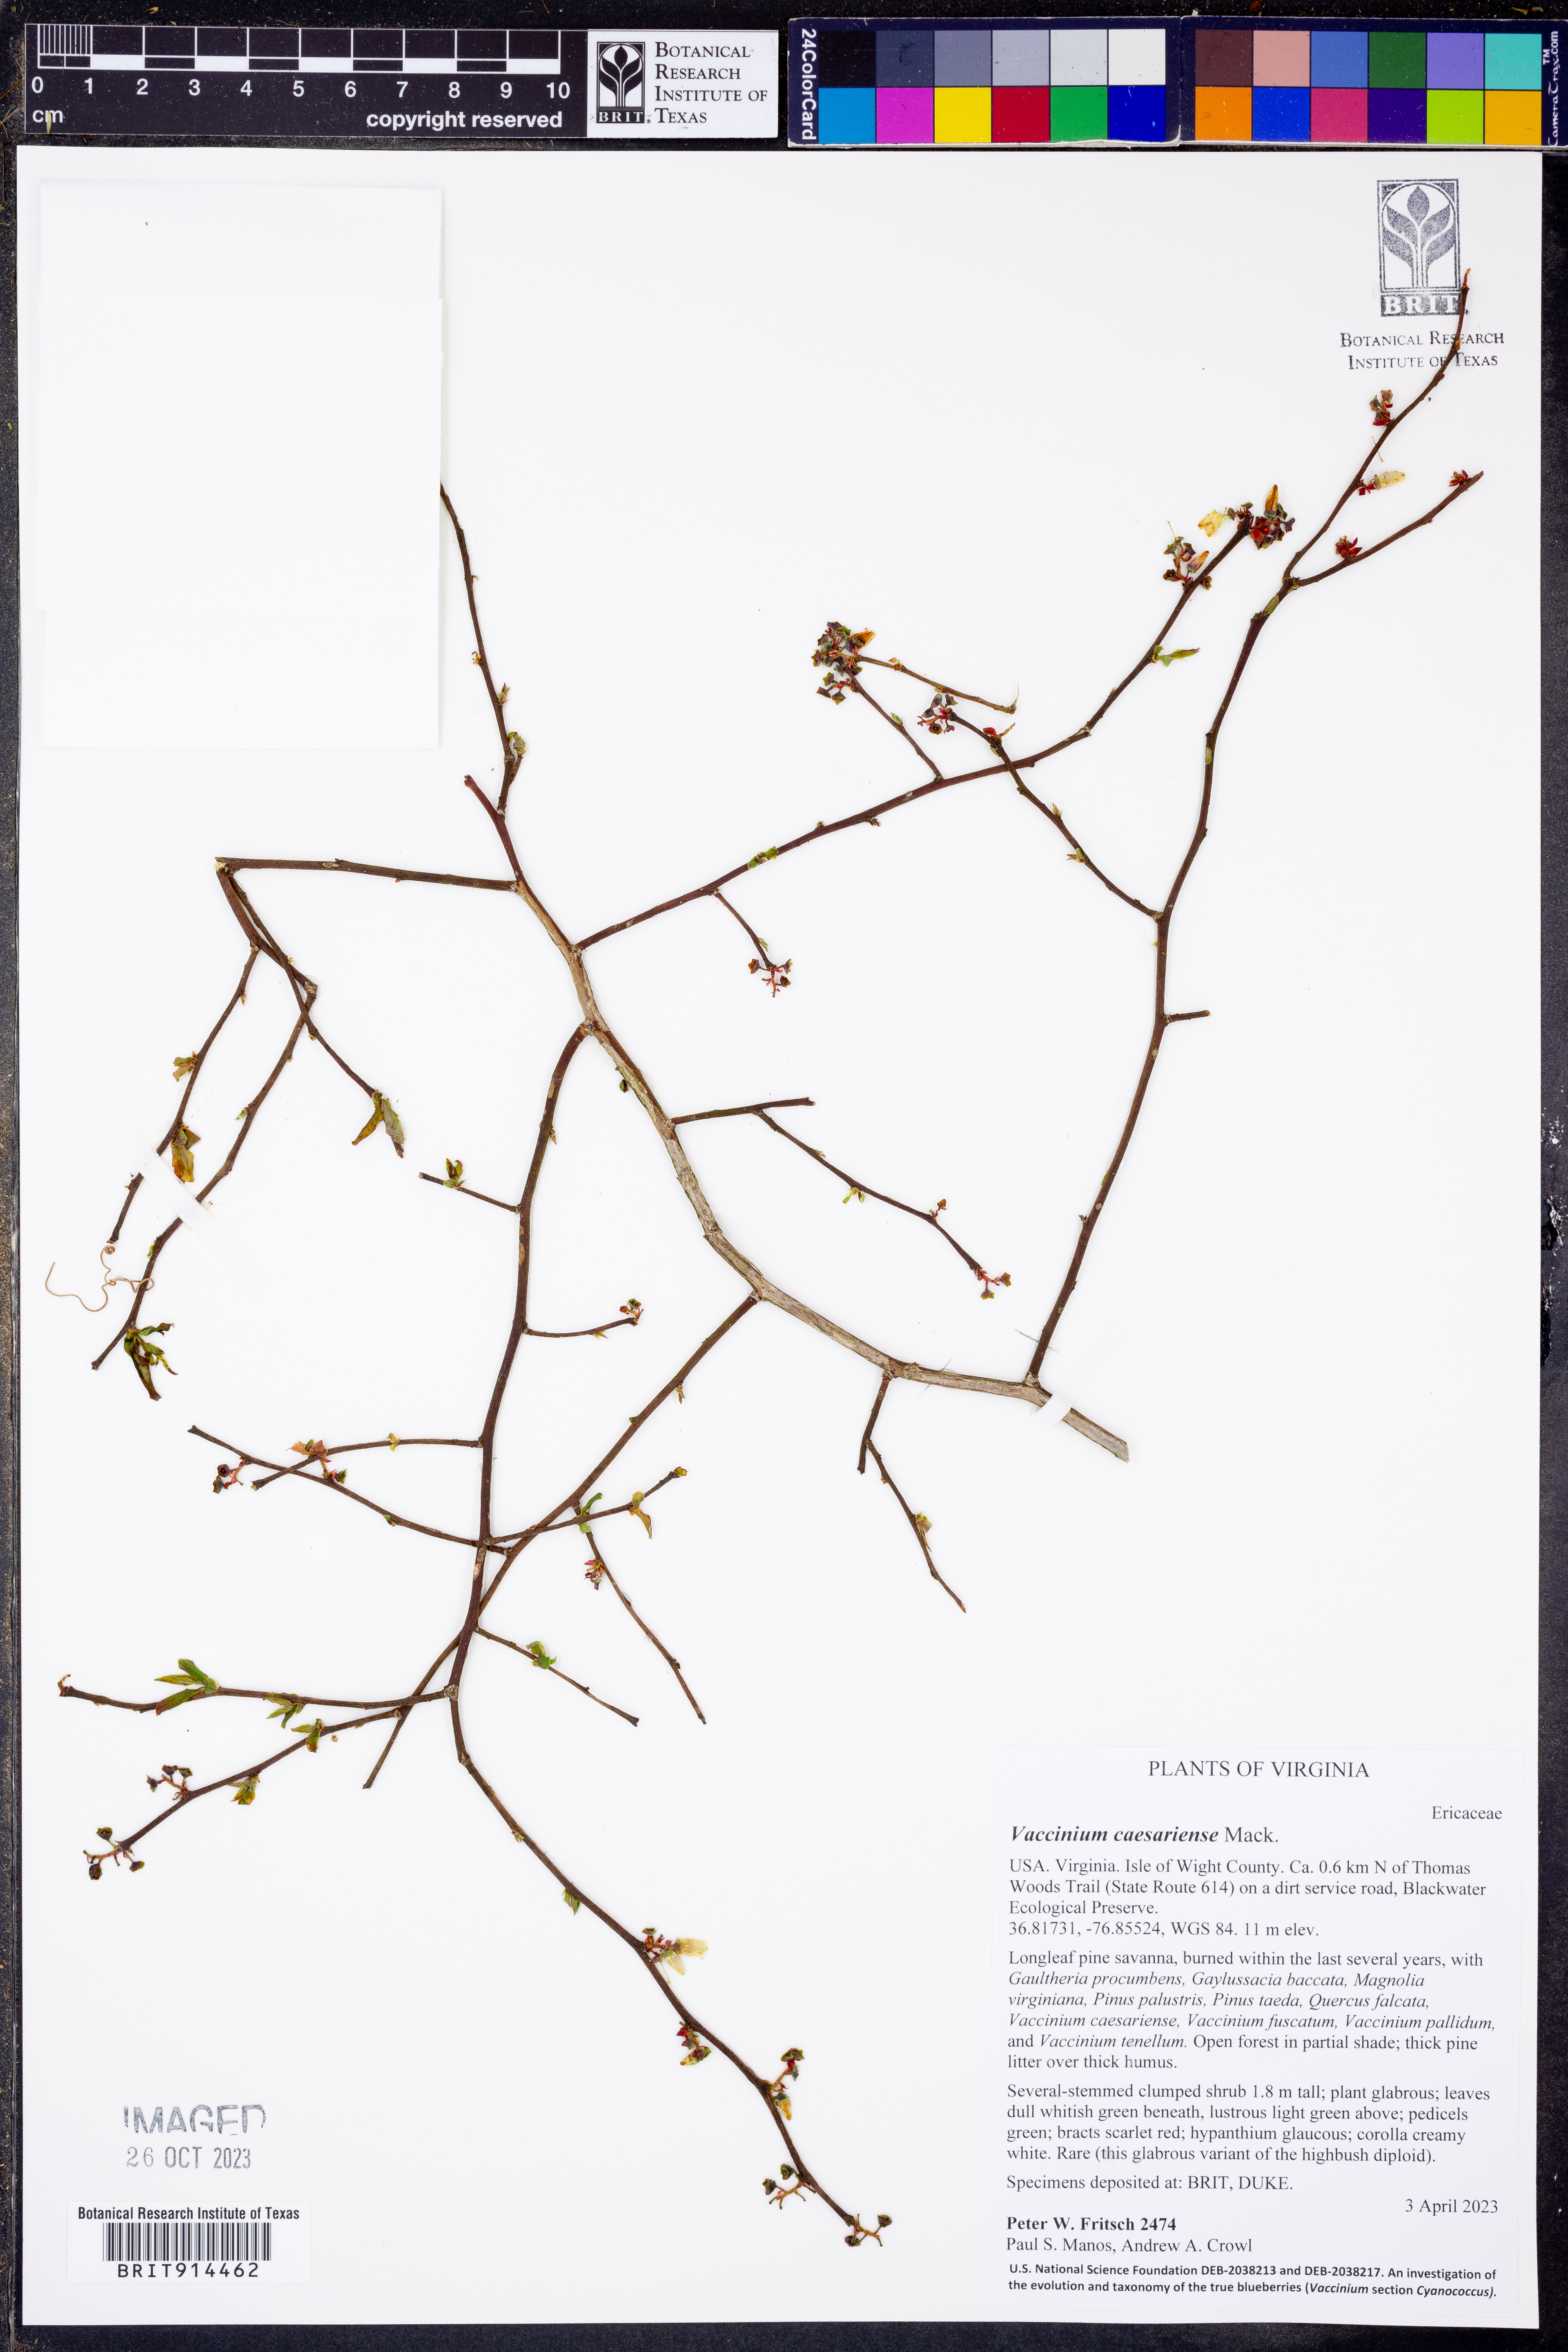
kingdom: Plantae
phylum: Tracheophyta
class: Magnoliopsida
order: Ericales
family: Ericaceae
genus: Vaccinium
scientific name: Vaccinium caesariense
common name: New jersey highbush blueberry
